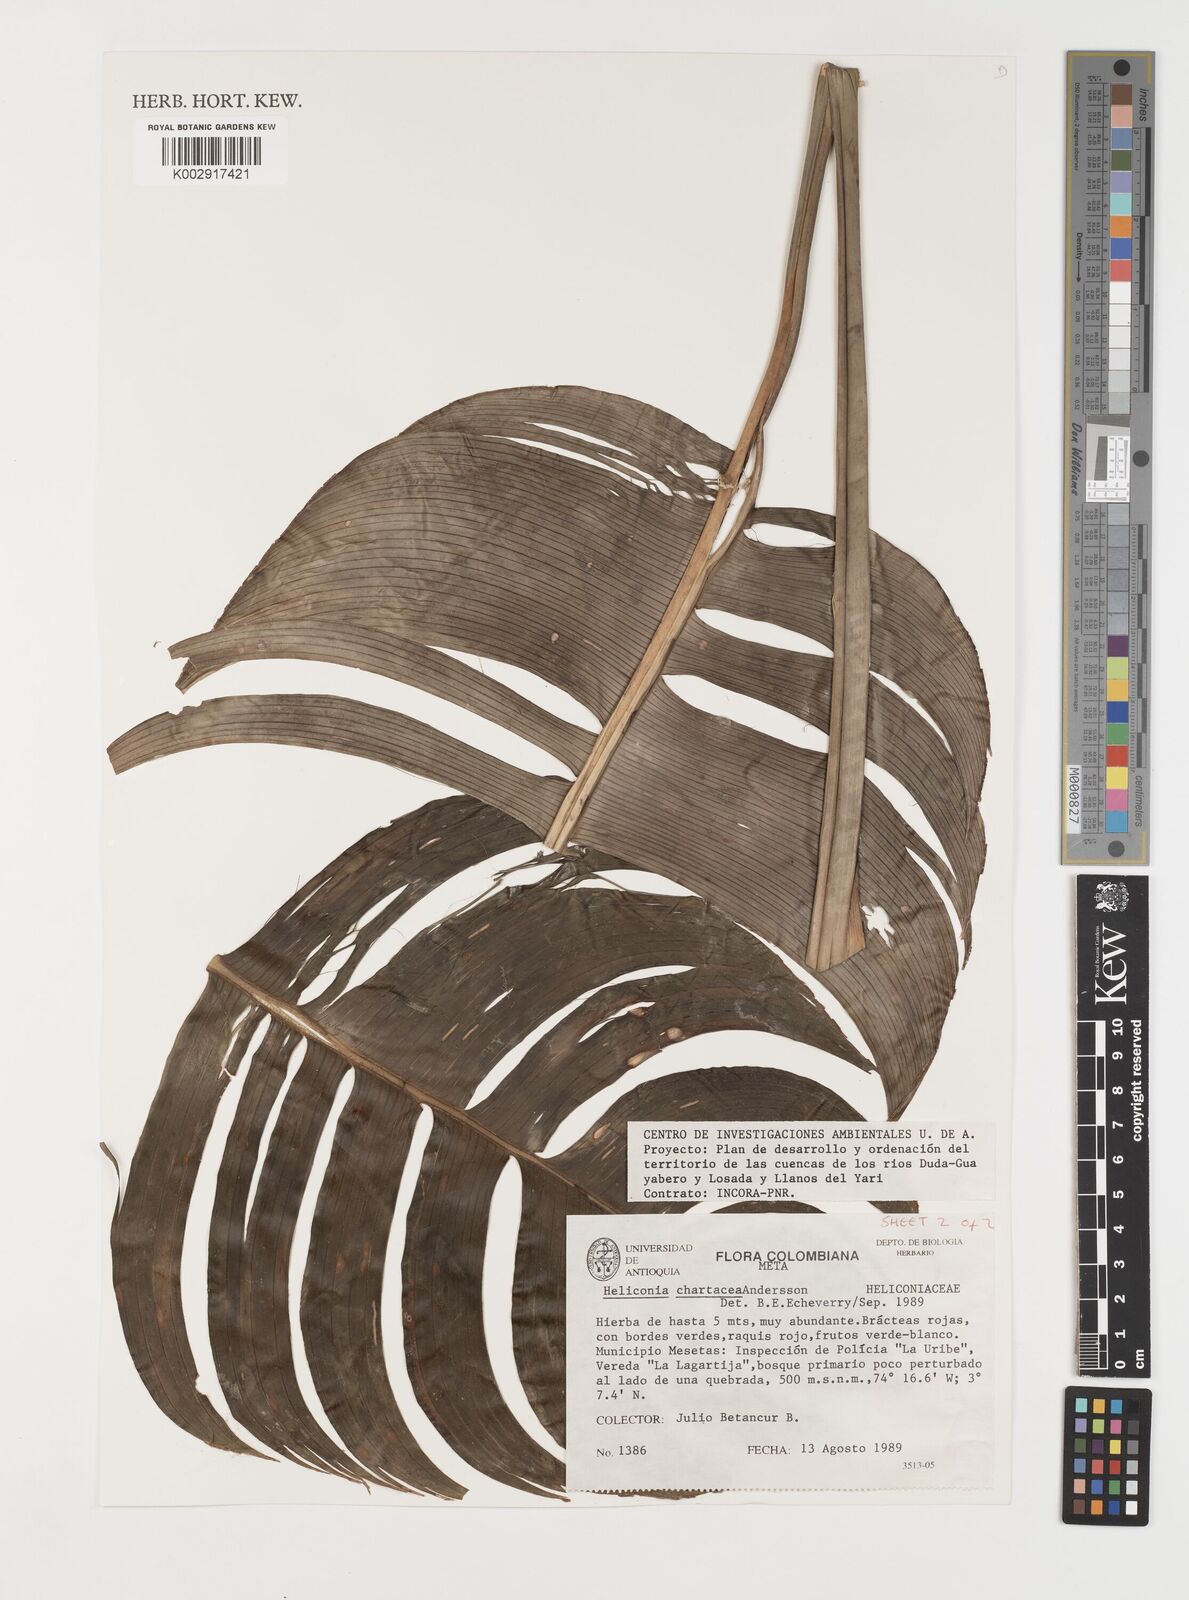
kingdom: Plantae
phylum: Tracheophyta
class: Liliopsida
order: Zingiberales
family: Heliconiaceae
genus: Heliconia
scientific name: Heliconia chartacea
